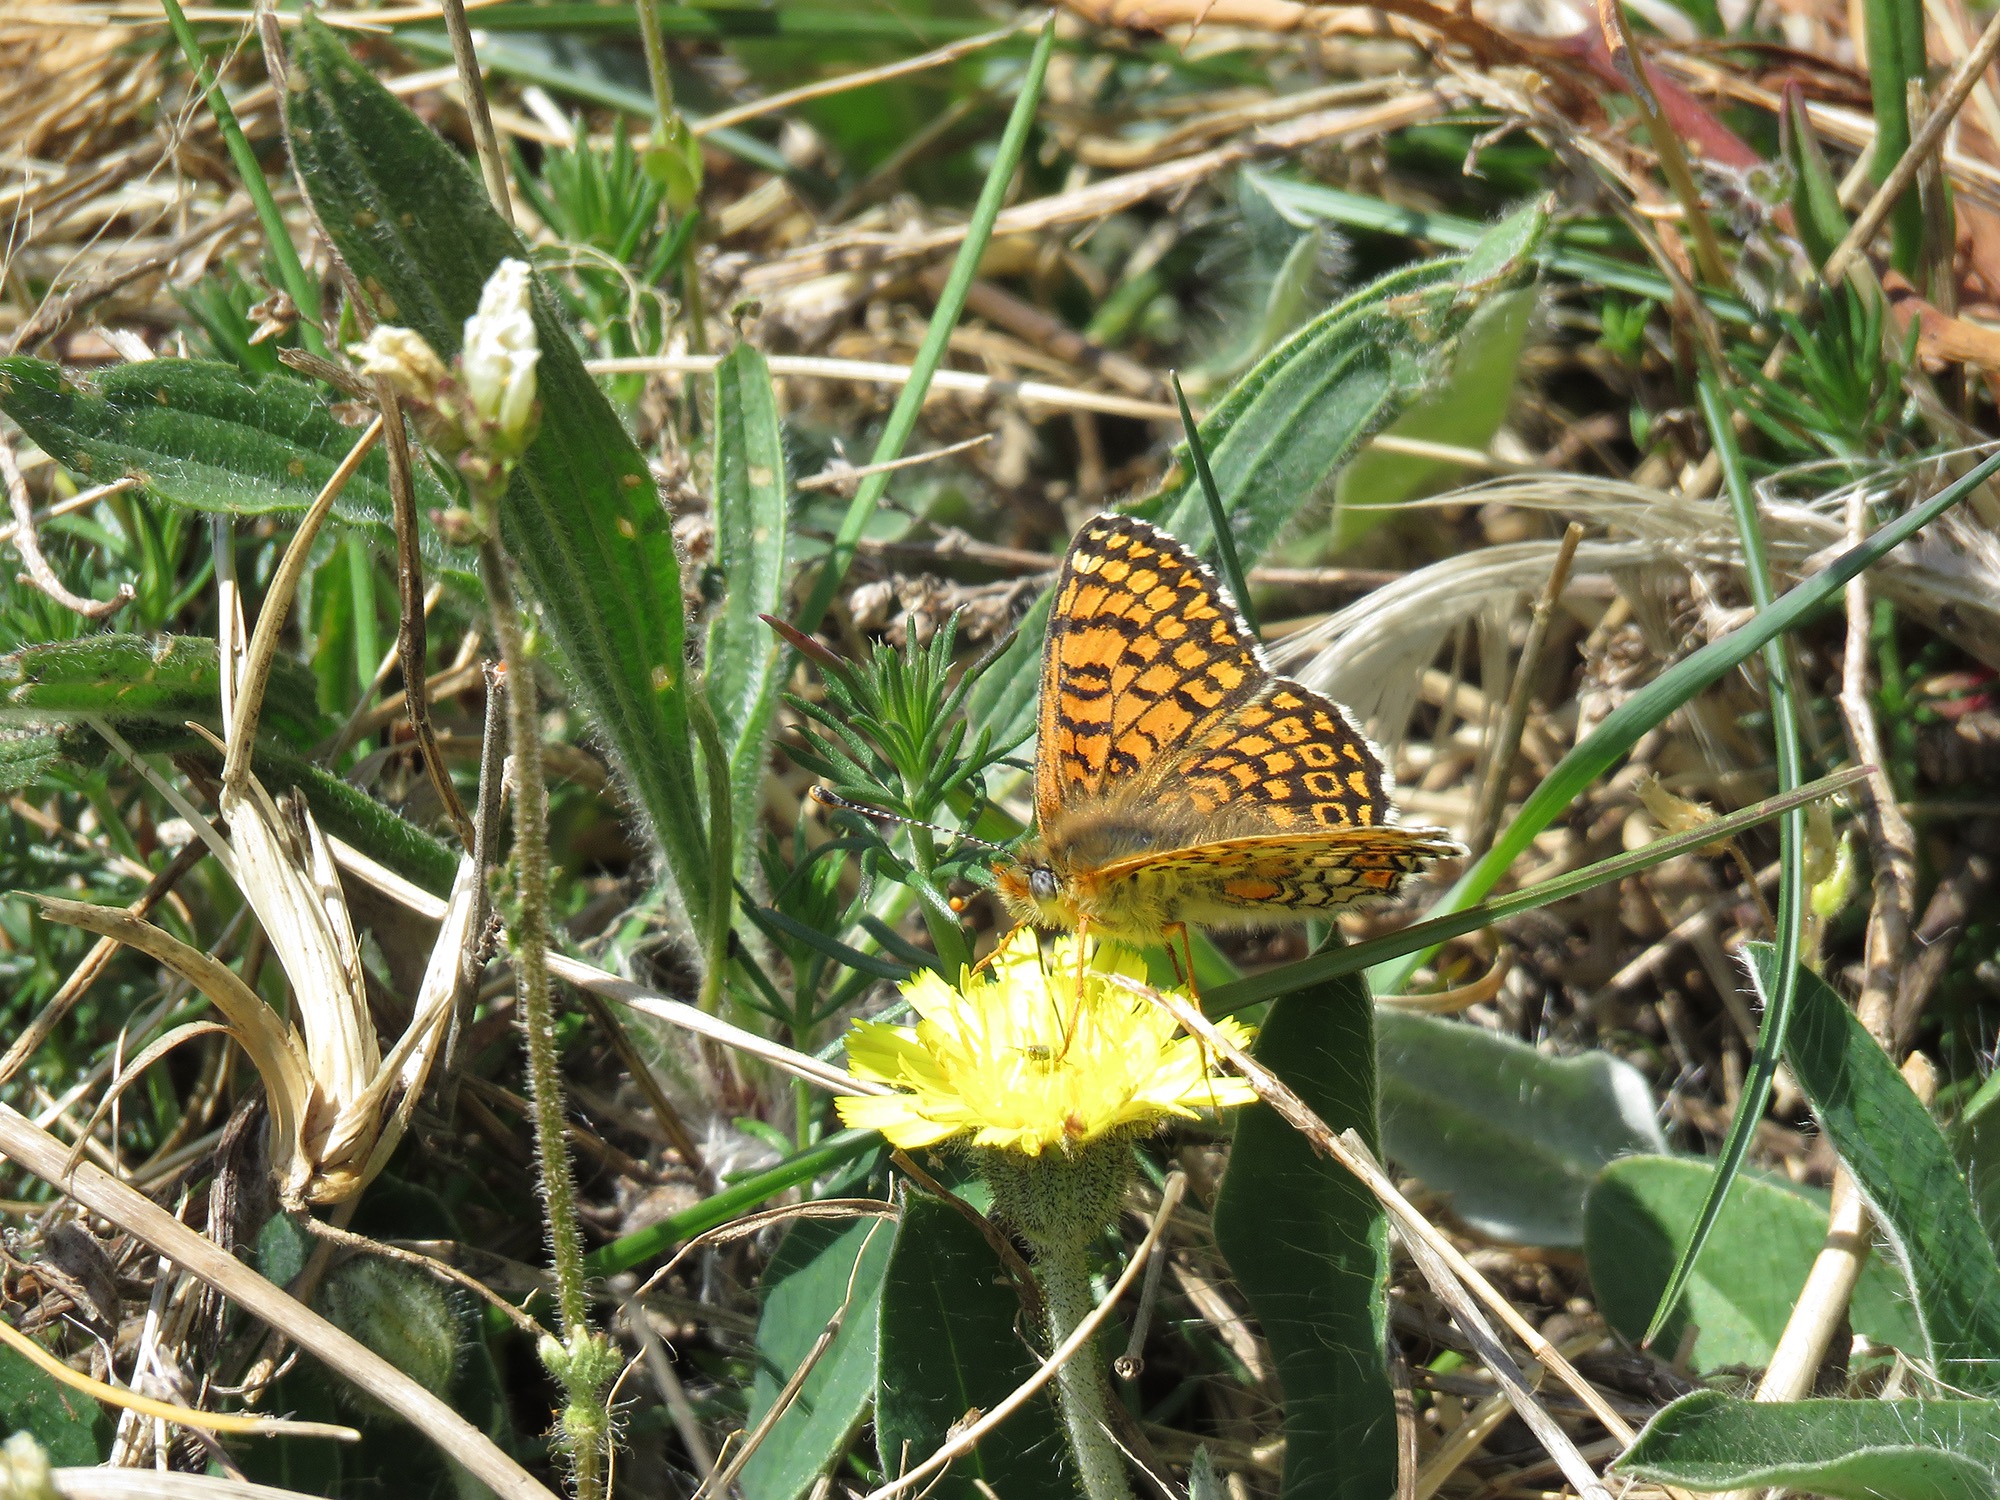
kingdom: Animalia
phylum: Arthropoda
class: Insecta
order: Lepidoptera
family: Nymphalidae
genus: Melitaea
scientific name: Melitaea cinxia
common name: Okkergul pletvinge
